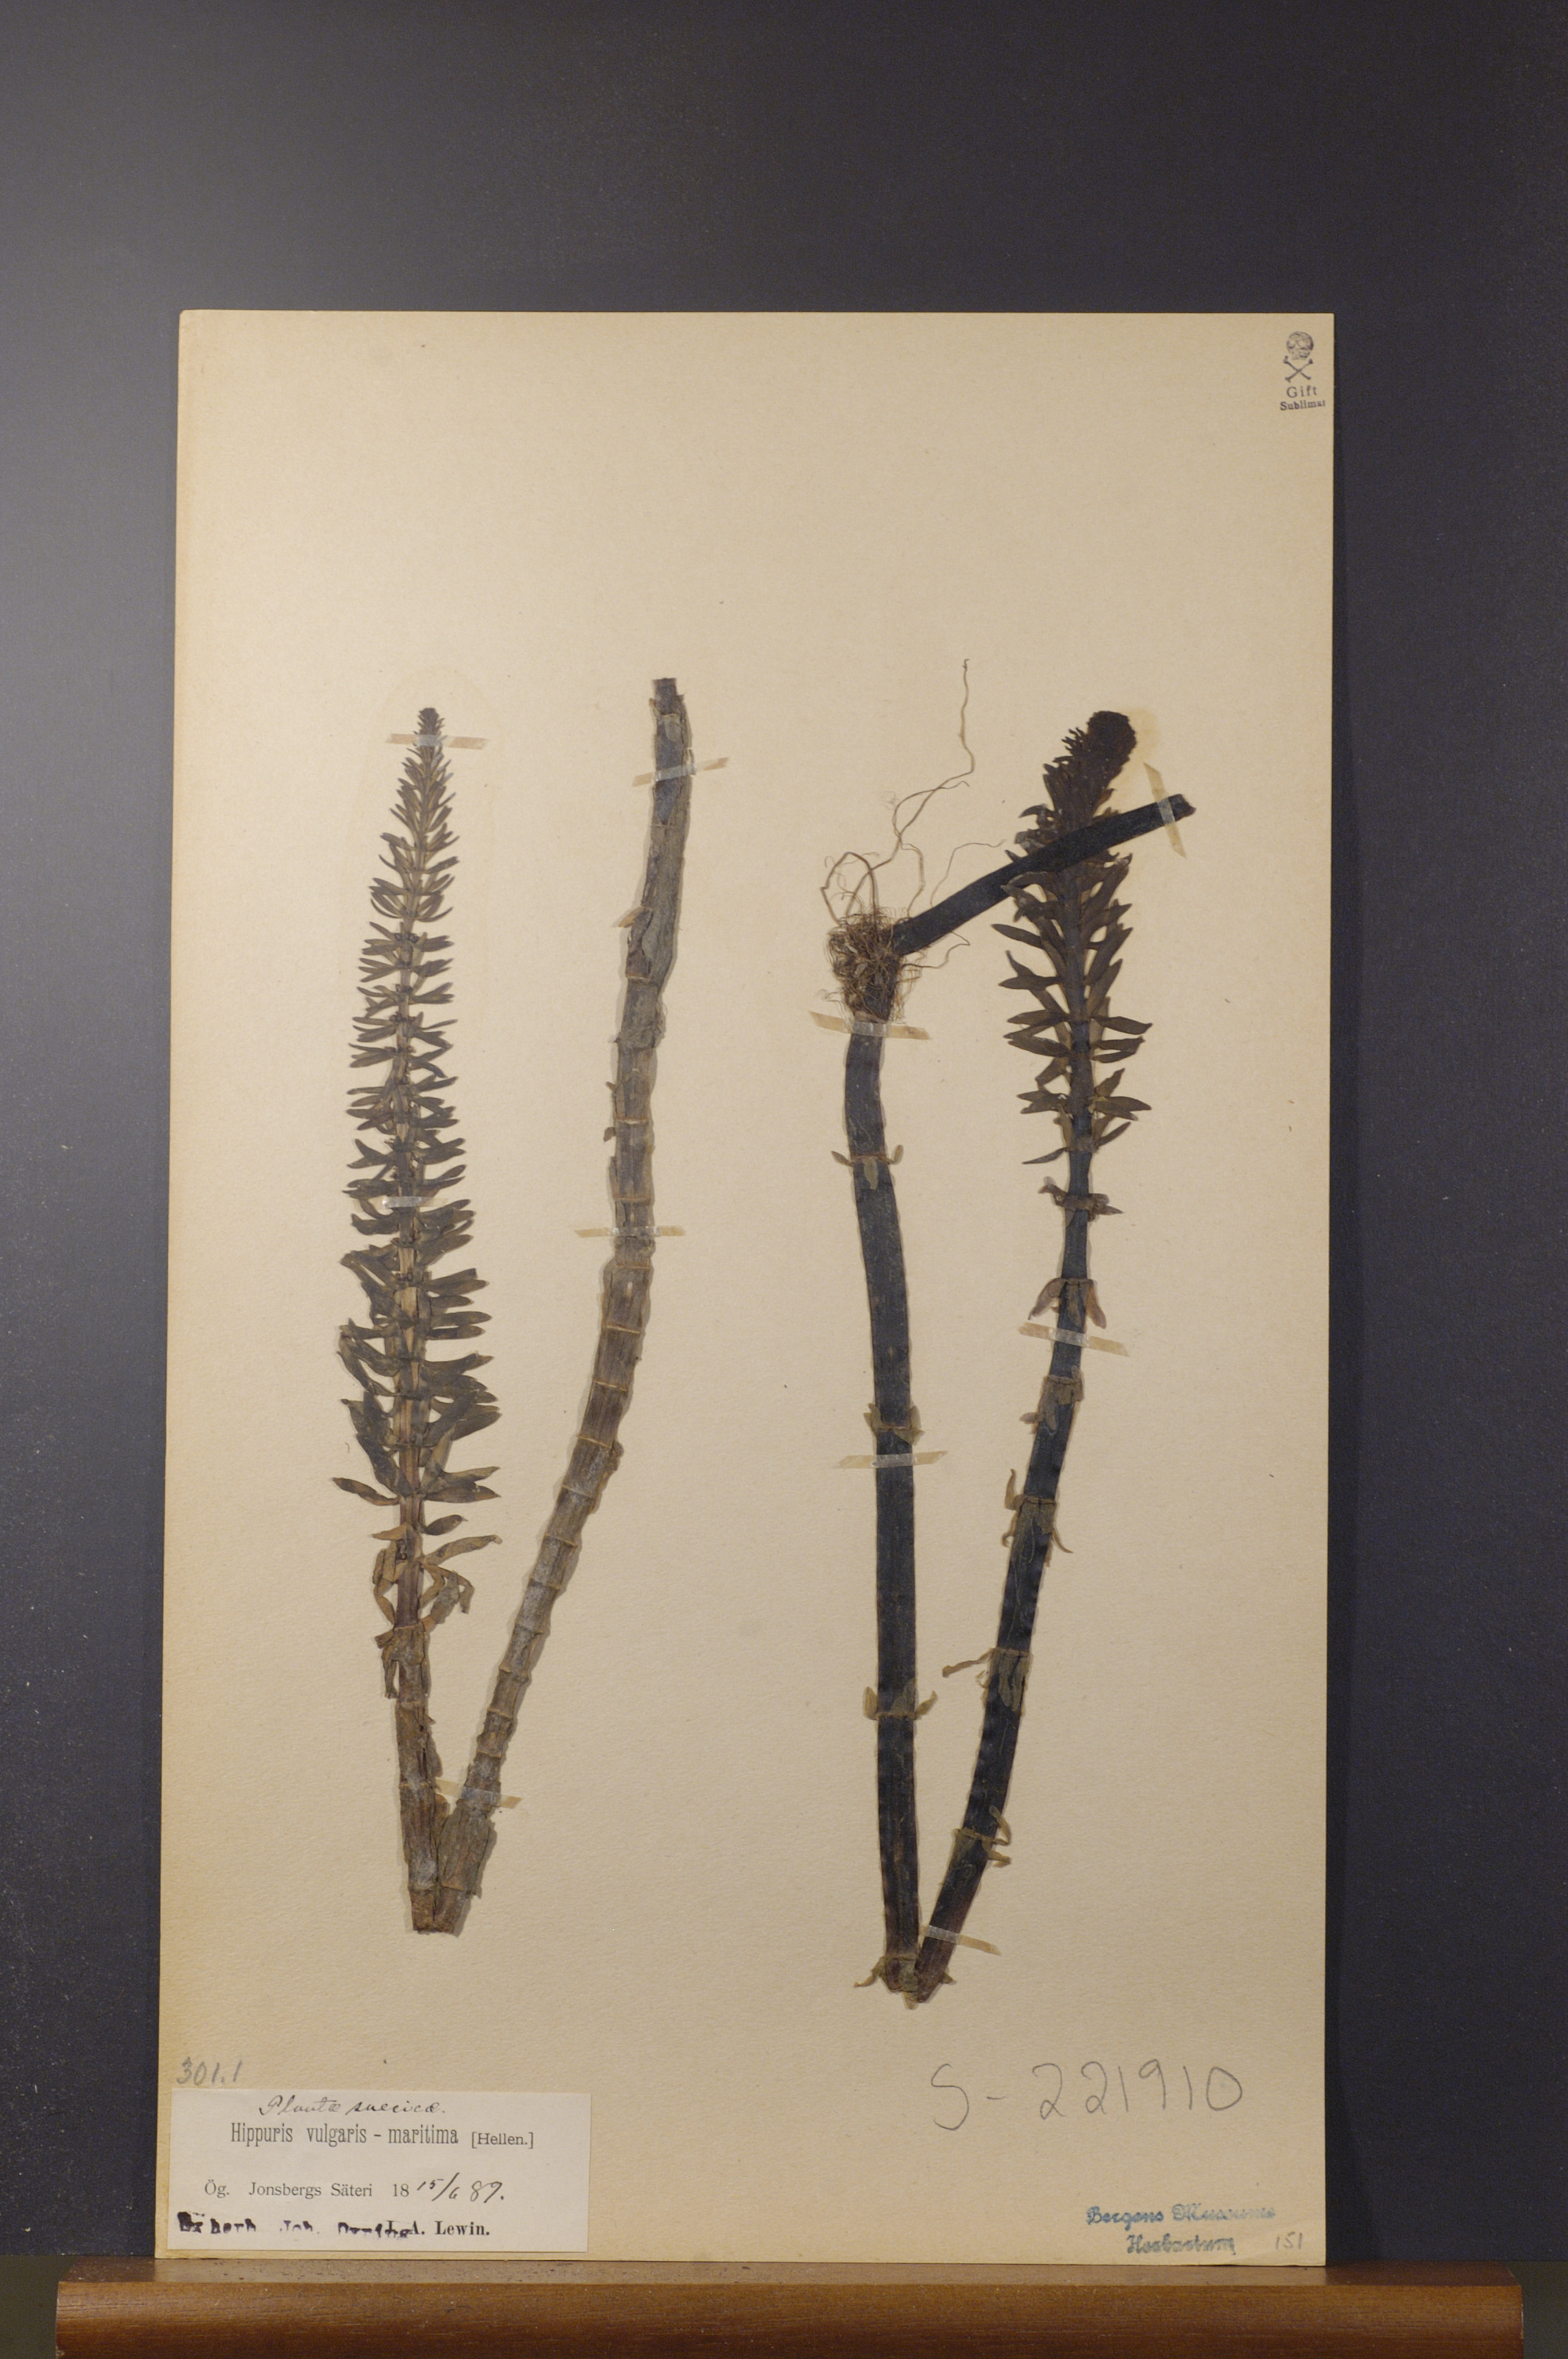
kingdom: Plantae
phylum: Tracheophyta
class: Magnoliopsida
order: Lamiales
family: Plantaginaceae
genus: Hippuris
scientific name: Hippuris lanceolata
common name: Lance-leaved mare's-tail
